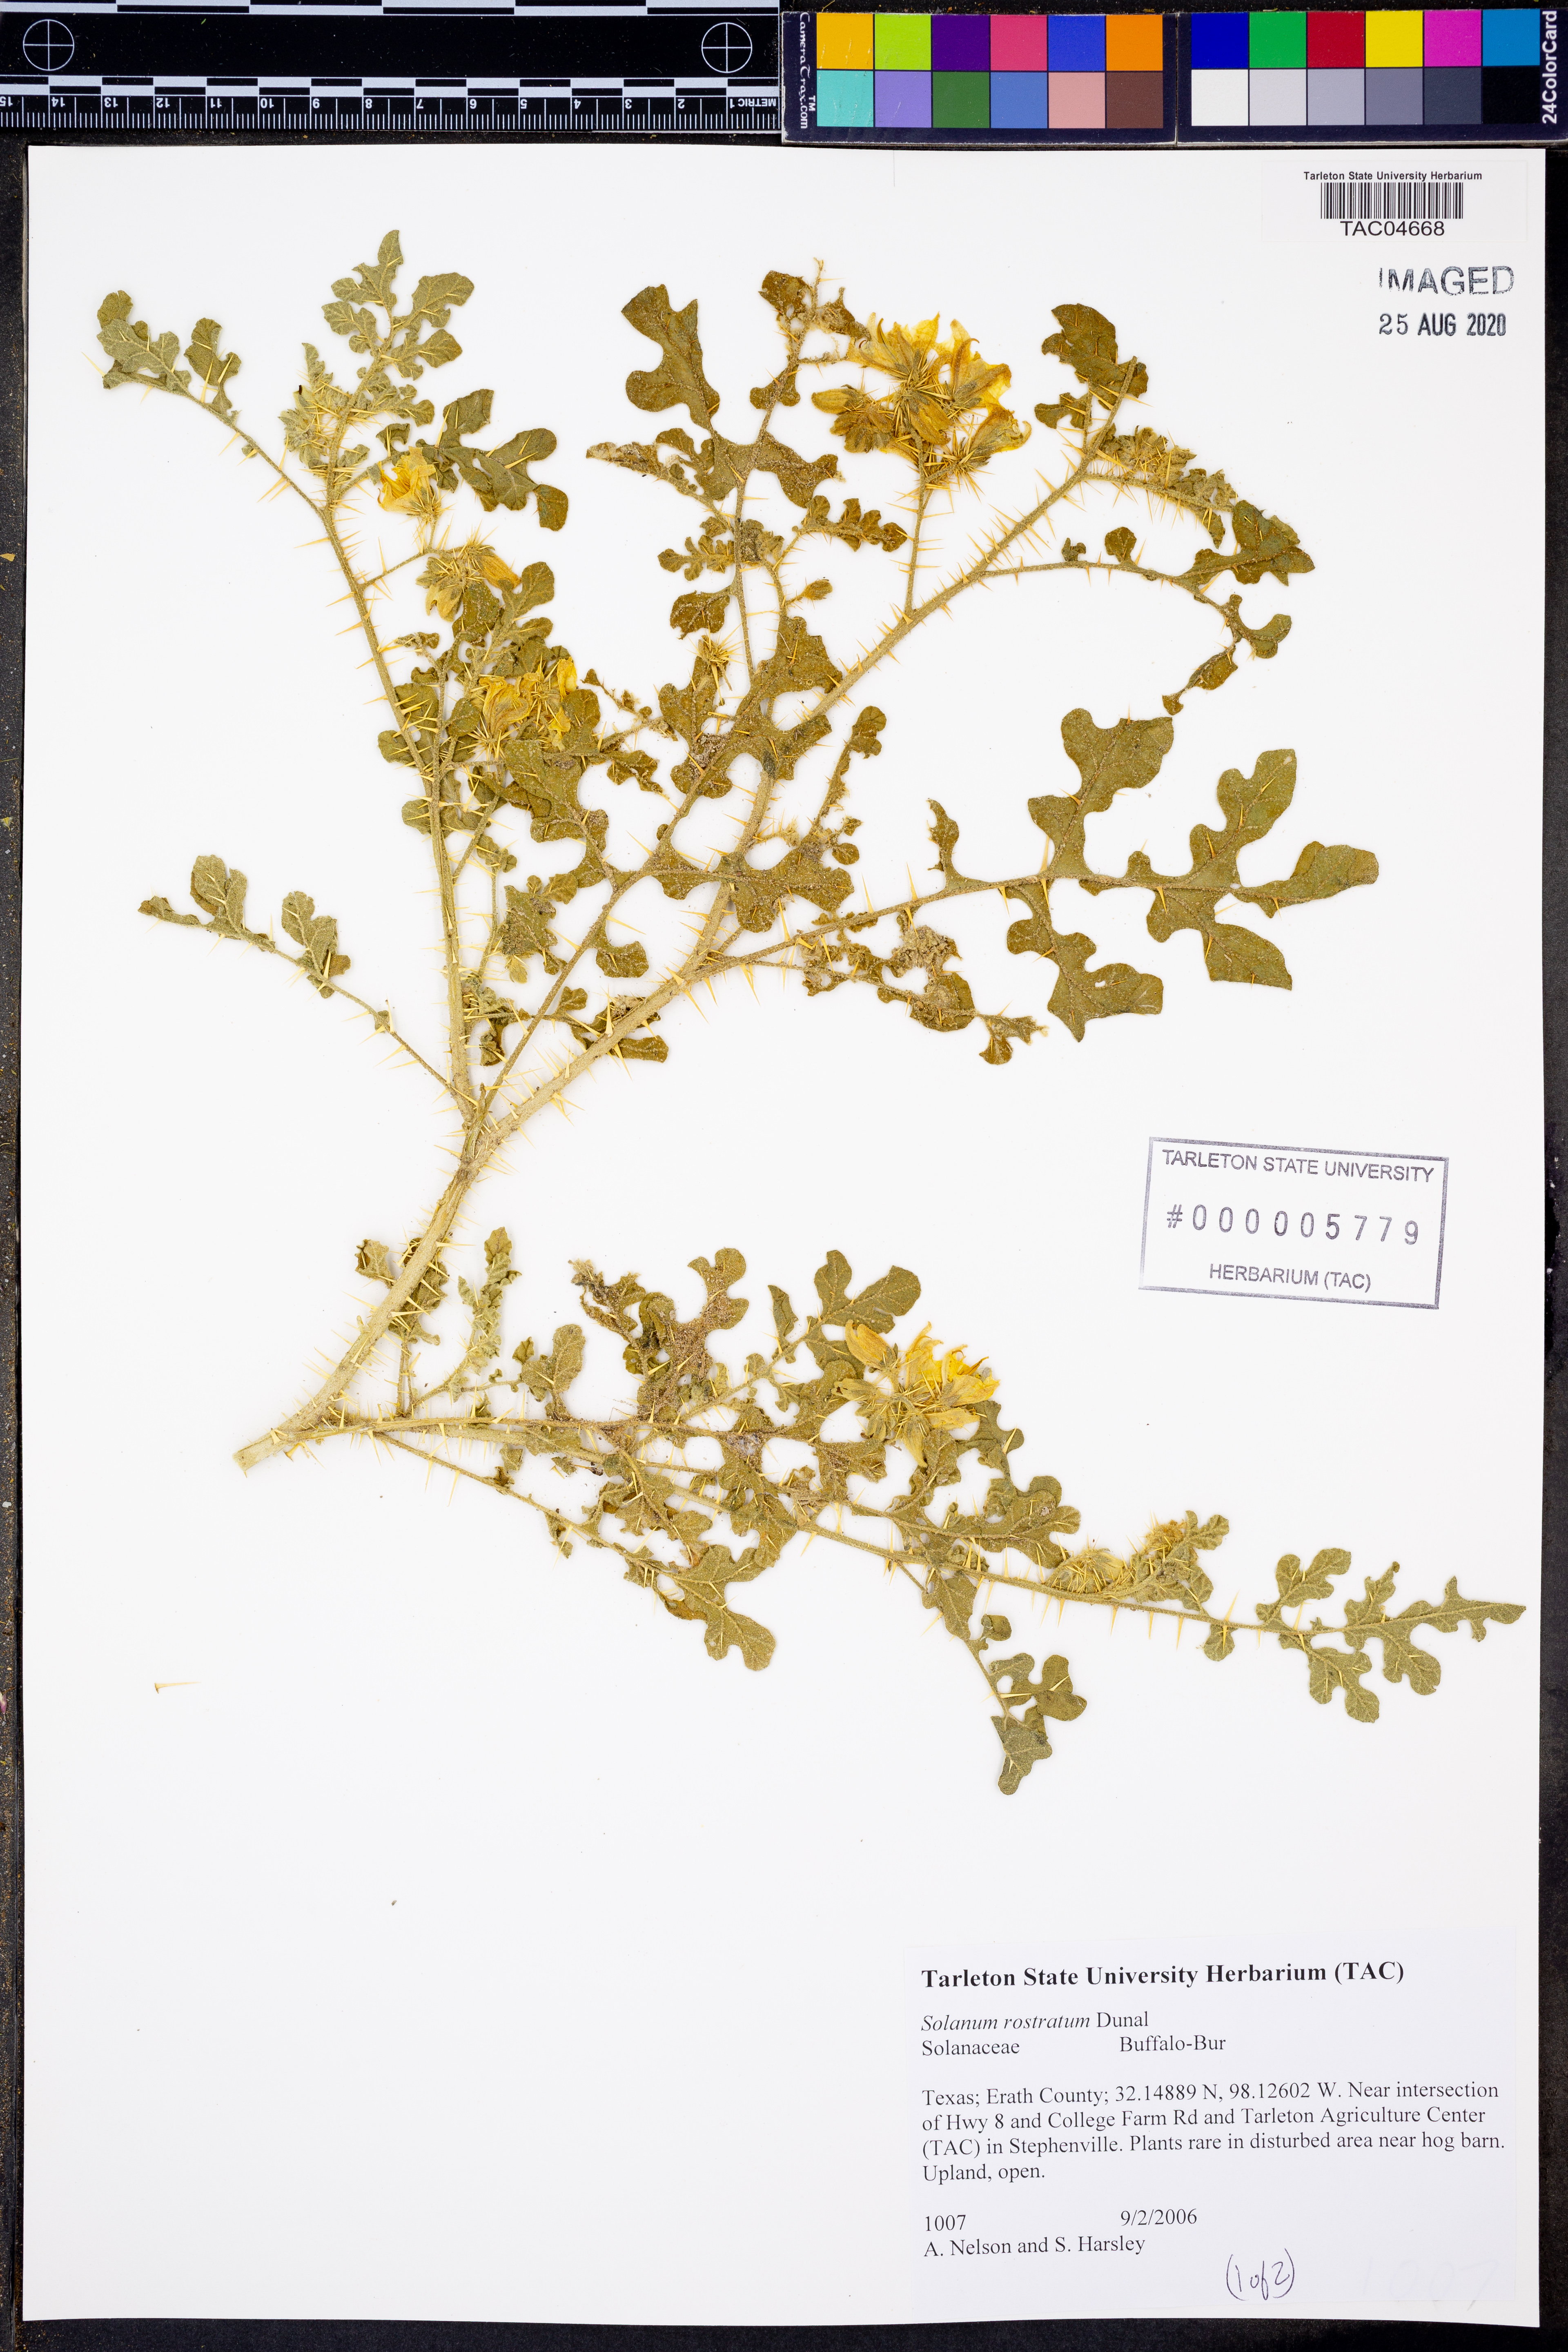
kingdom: Plantae
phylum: Tracheophyta
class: Magnoliopsida
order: Solanales
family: Solanaceae
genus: Solanum
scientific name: Solanum angustifolium
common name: Buffalobur nightshade
